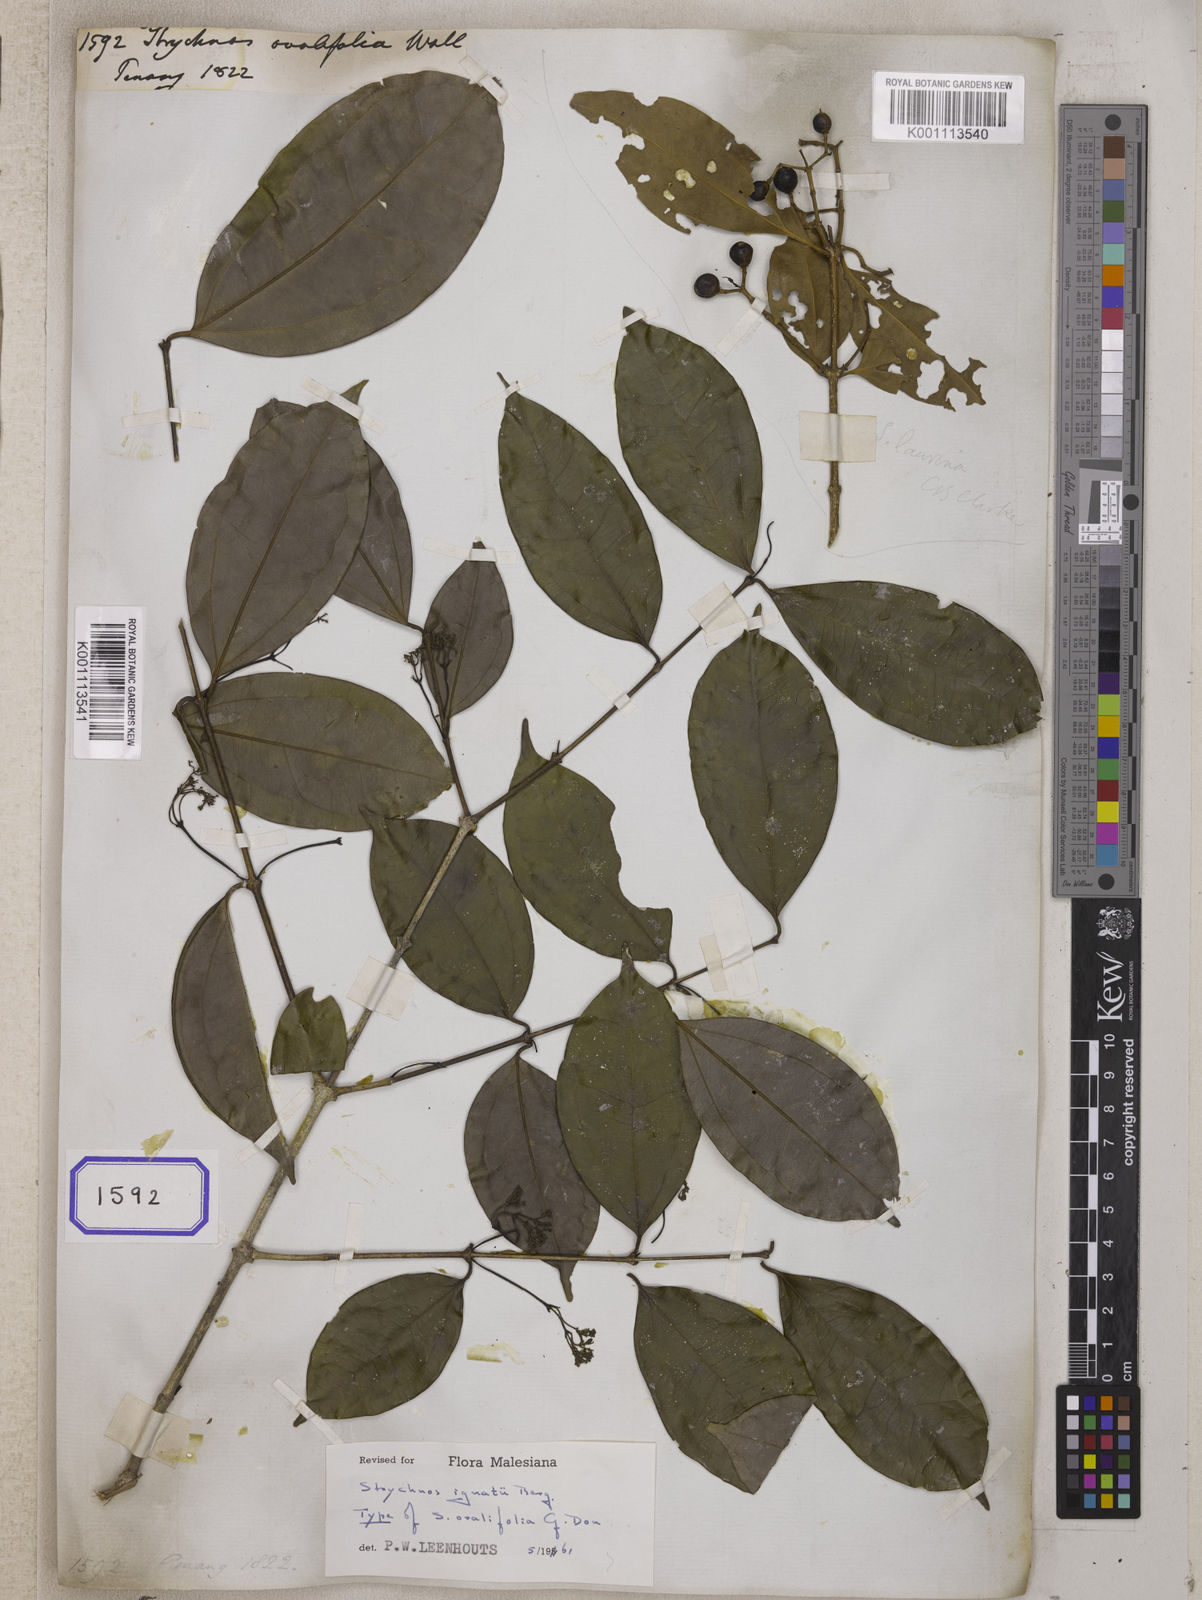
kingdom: Plantae
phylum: Tracheophyta
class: Magnoliopsida
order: Gentianales
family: Loganiaceae
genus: Strychnos
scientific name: Strychnos
